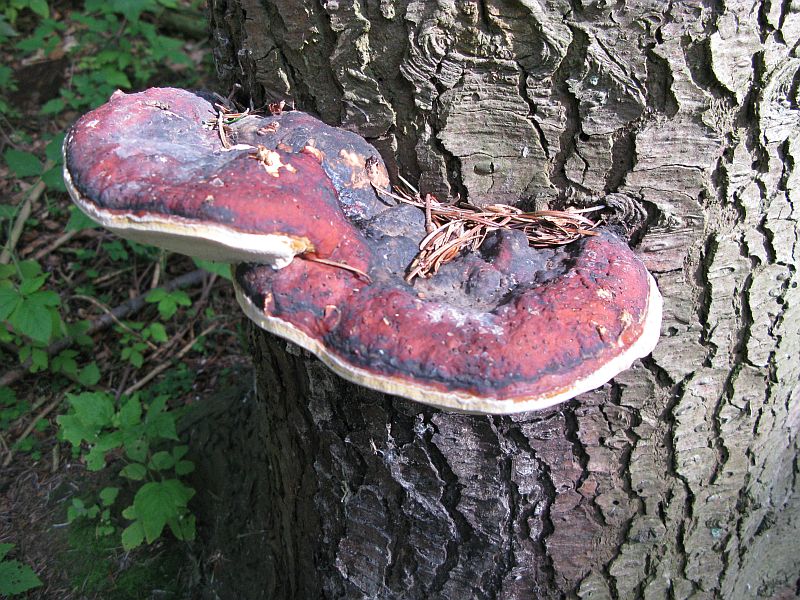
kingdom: Fungi
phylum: Basidiomycota
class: Agaricomycetes
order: Polyporales
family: Fomitopsidaceae
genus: Fomitopsis
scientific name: Fomitopsis pinicola
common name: randbæltet hovporesvamp
